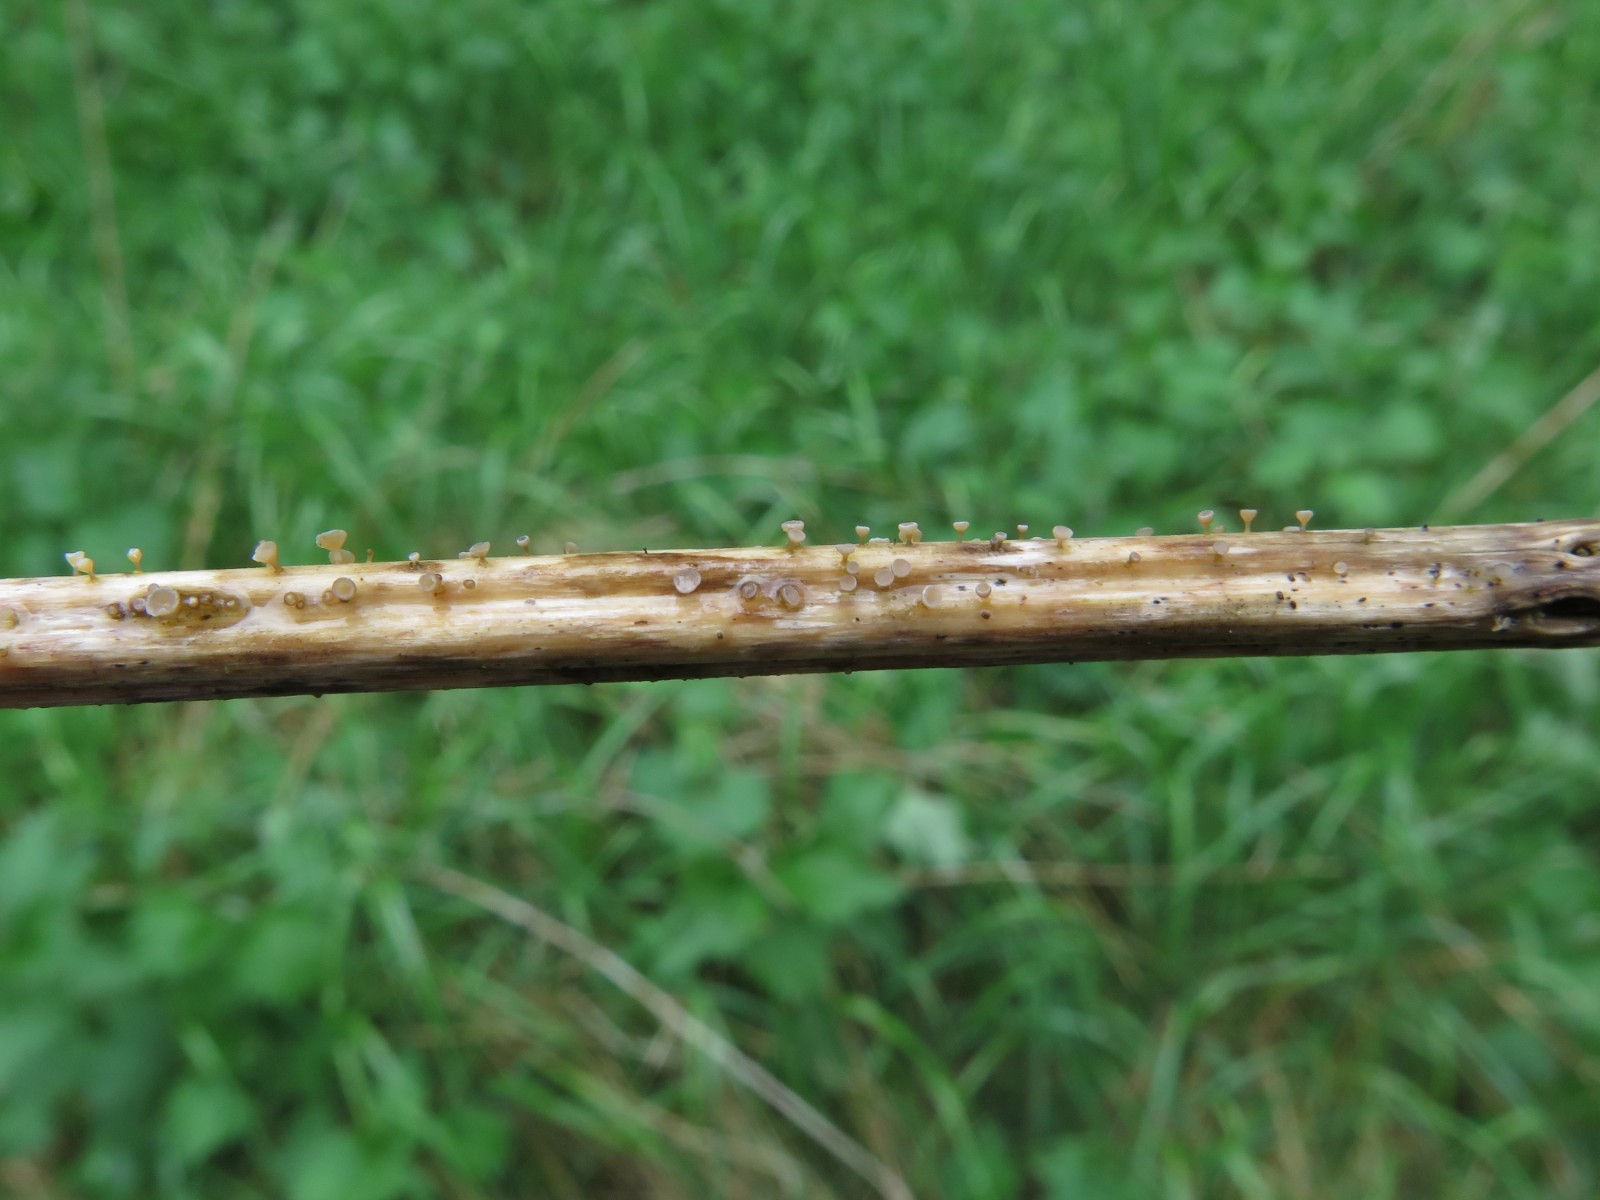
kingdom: Fungi
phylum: Ascomycota
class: Leotiomycetes
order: Helotiales
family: Helotiaceae
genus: Cyathicula
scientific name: Cyathicula cyathoidea
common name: pokal-stilkskive
